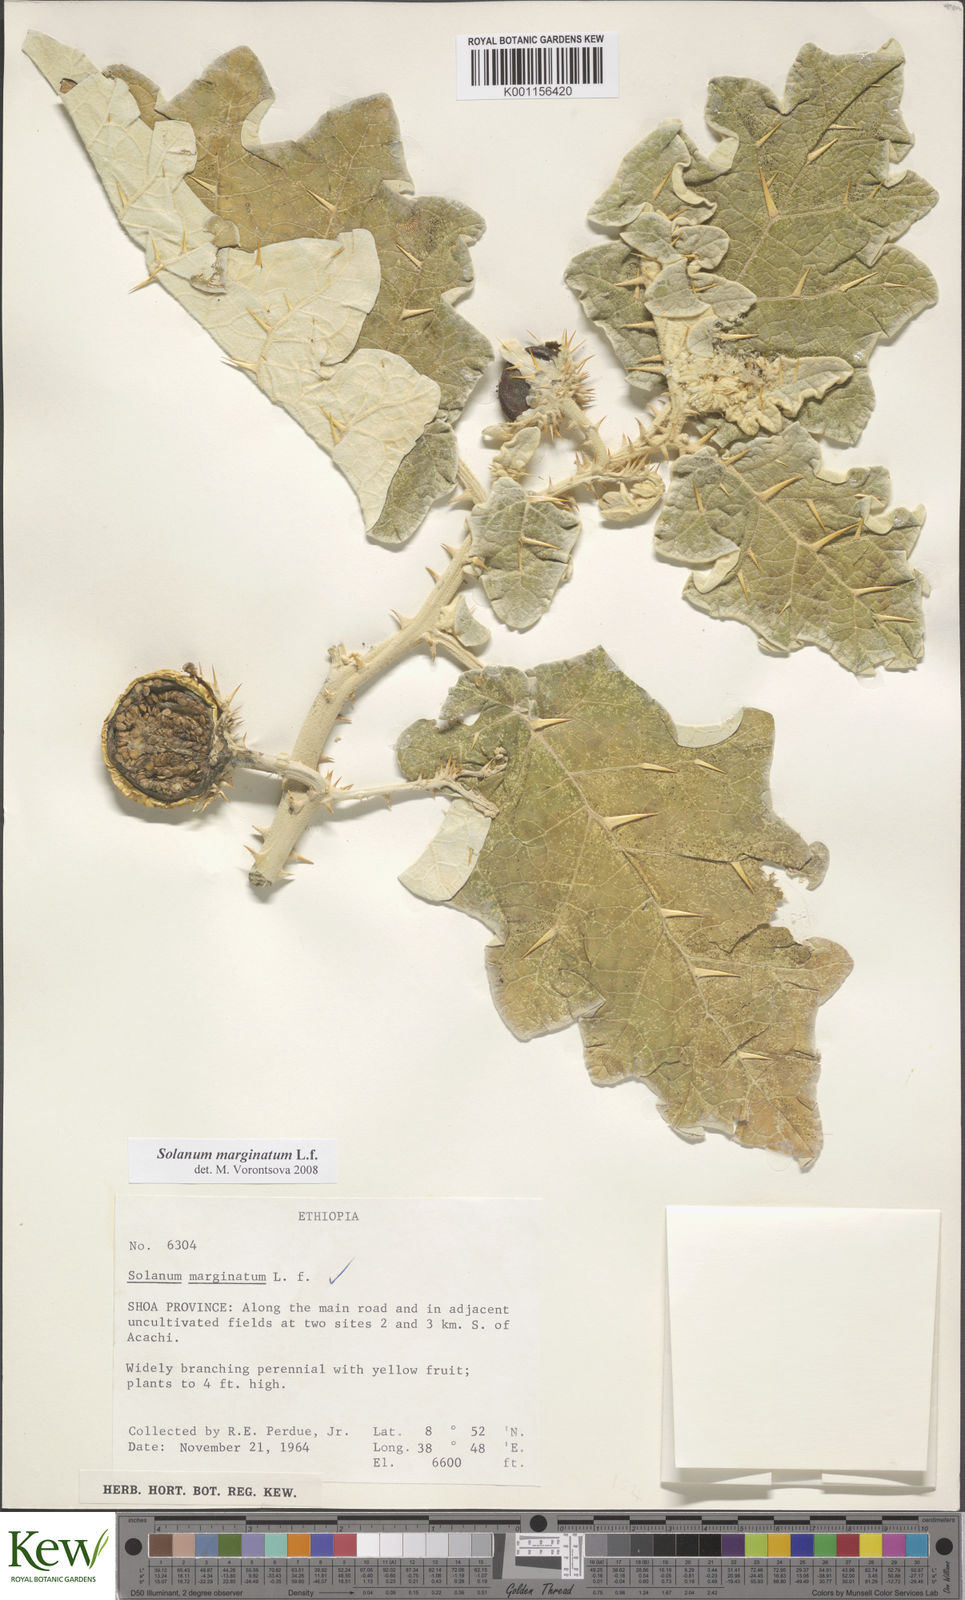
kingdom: Plantae
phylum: Tracheophyta
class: Magnoliopsida
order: Solanales
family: Solanaceae
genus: Solanum
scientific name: Solanum marginatum
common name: Purple african nightshade
